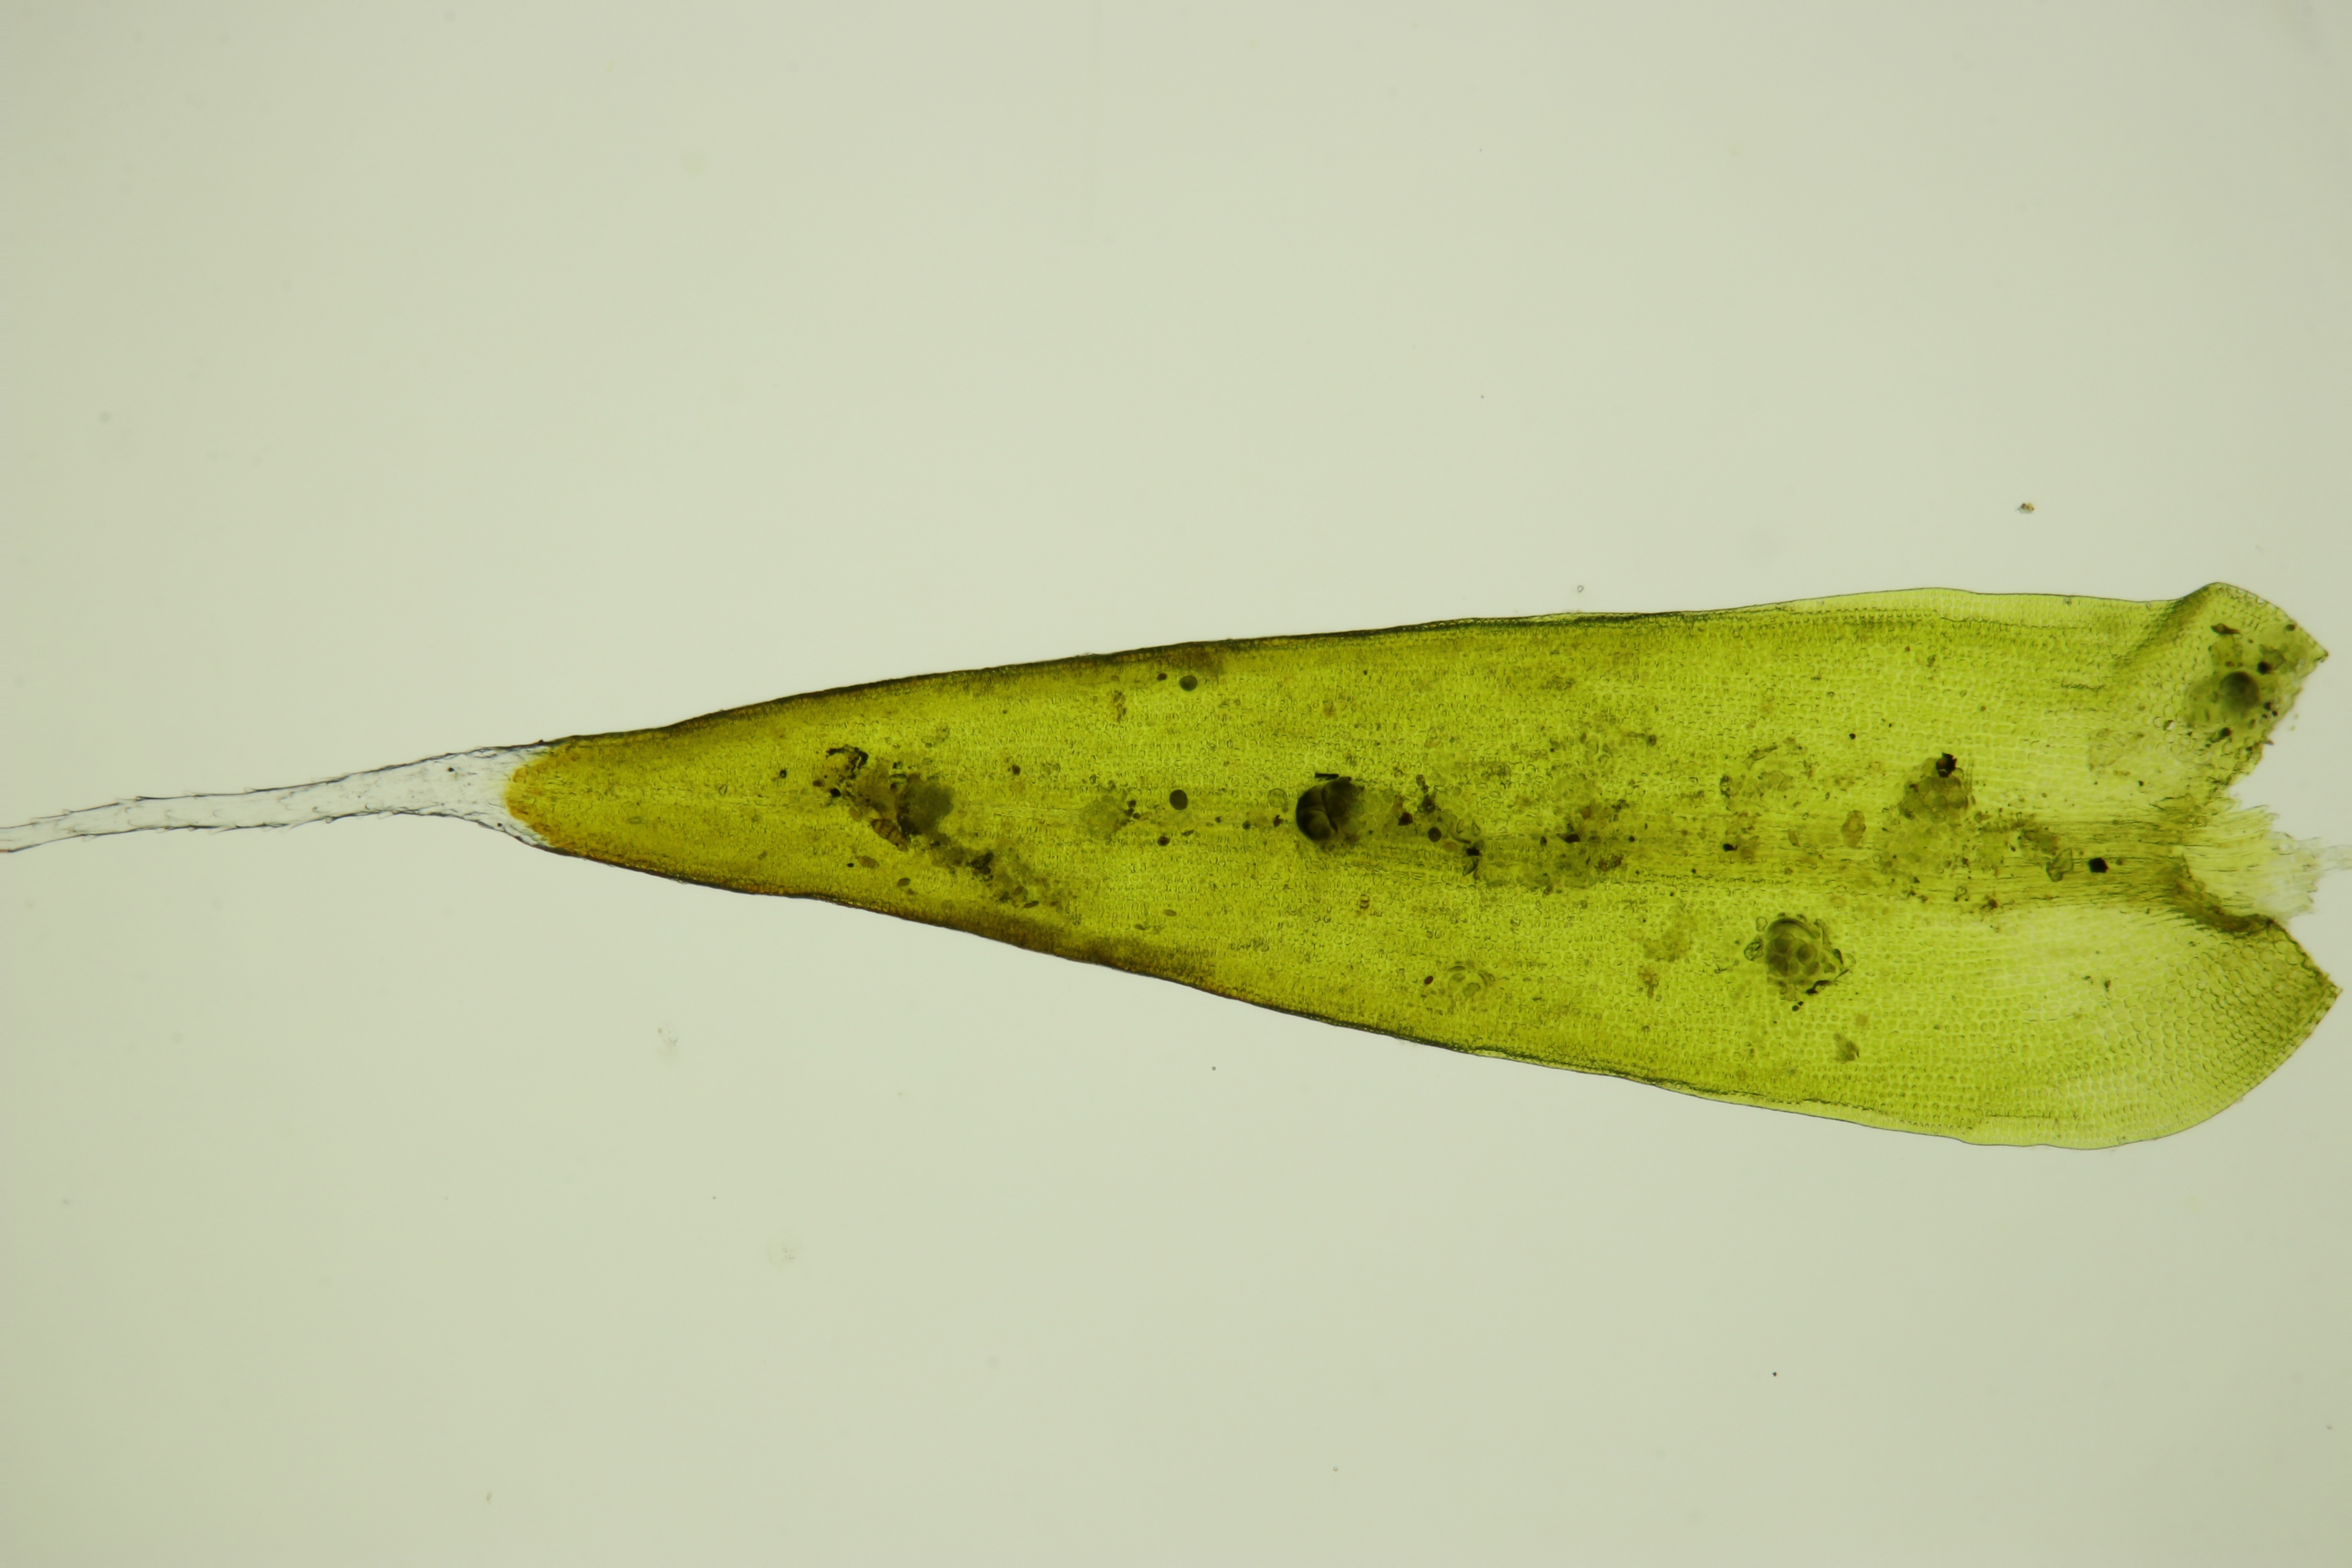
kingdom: Plantae
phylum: Bryophyta
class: Bryopsida
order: Grimmiales
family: Grimmiaceae
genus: Grimmia
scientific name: Grimmia laevigata
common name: Ø-gråmos
